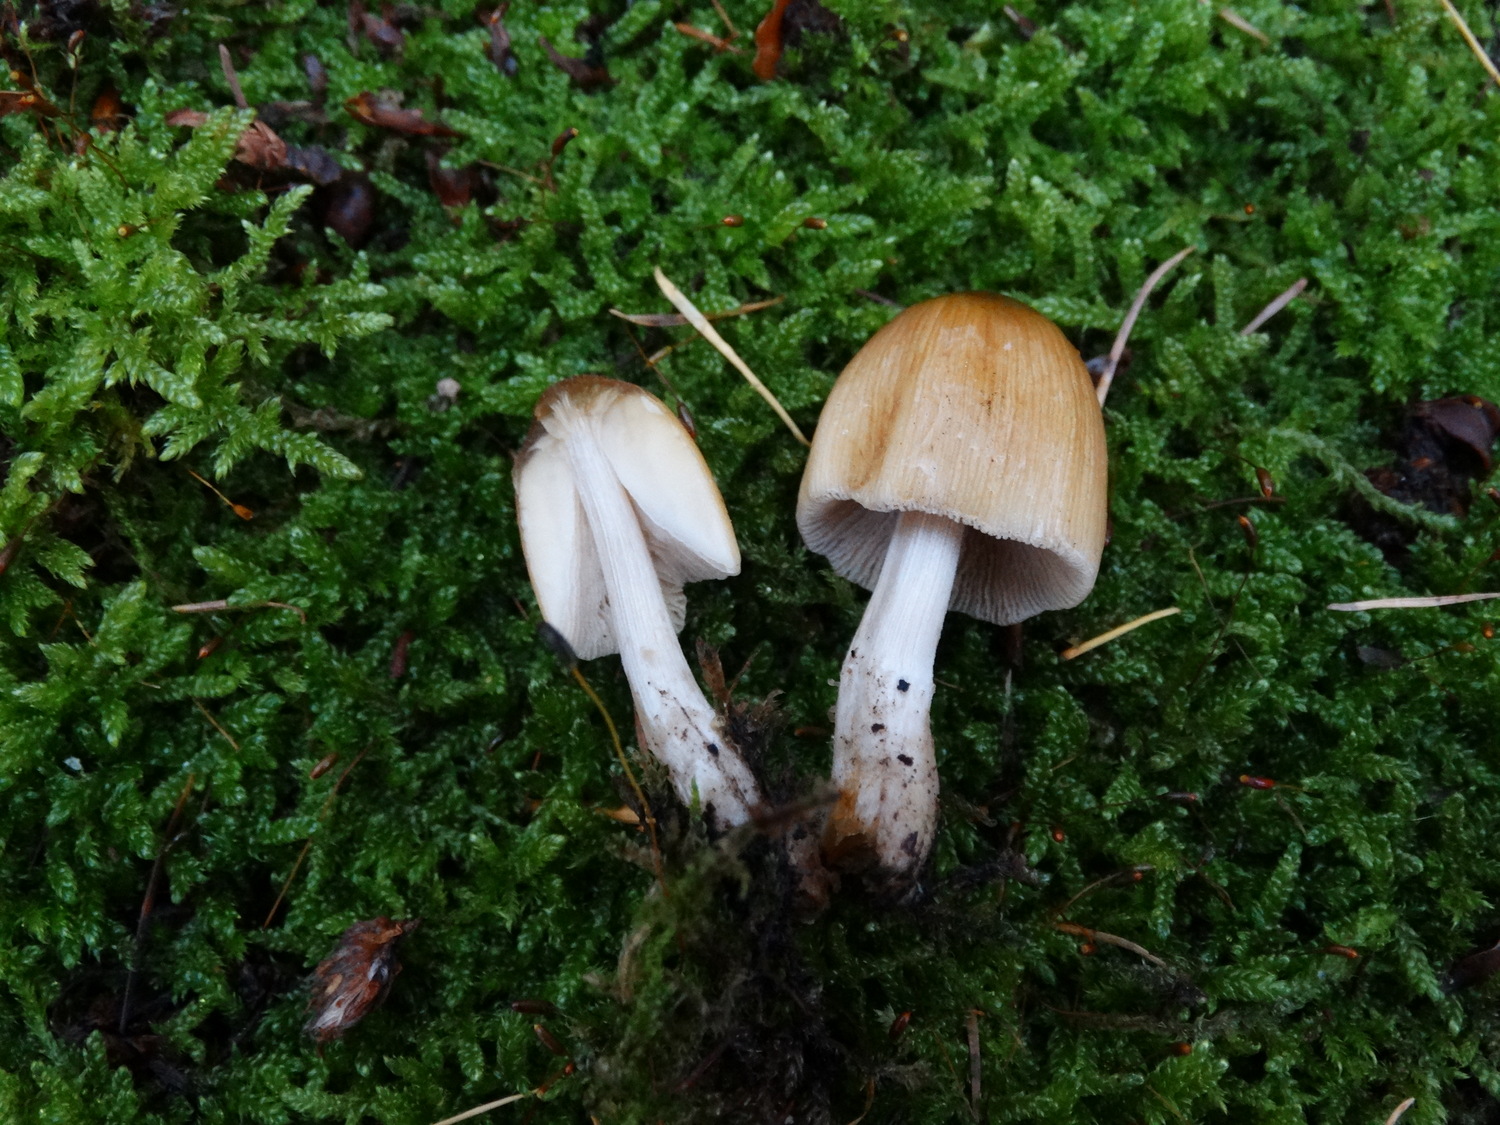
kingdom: Fungi
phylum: Basidiomycota
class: Agaricomycetes
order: Agaricales
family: Psathyrellaceae
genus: Coprinellus
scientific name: Coprinellus micaceus
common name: glimmer-blækhat
